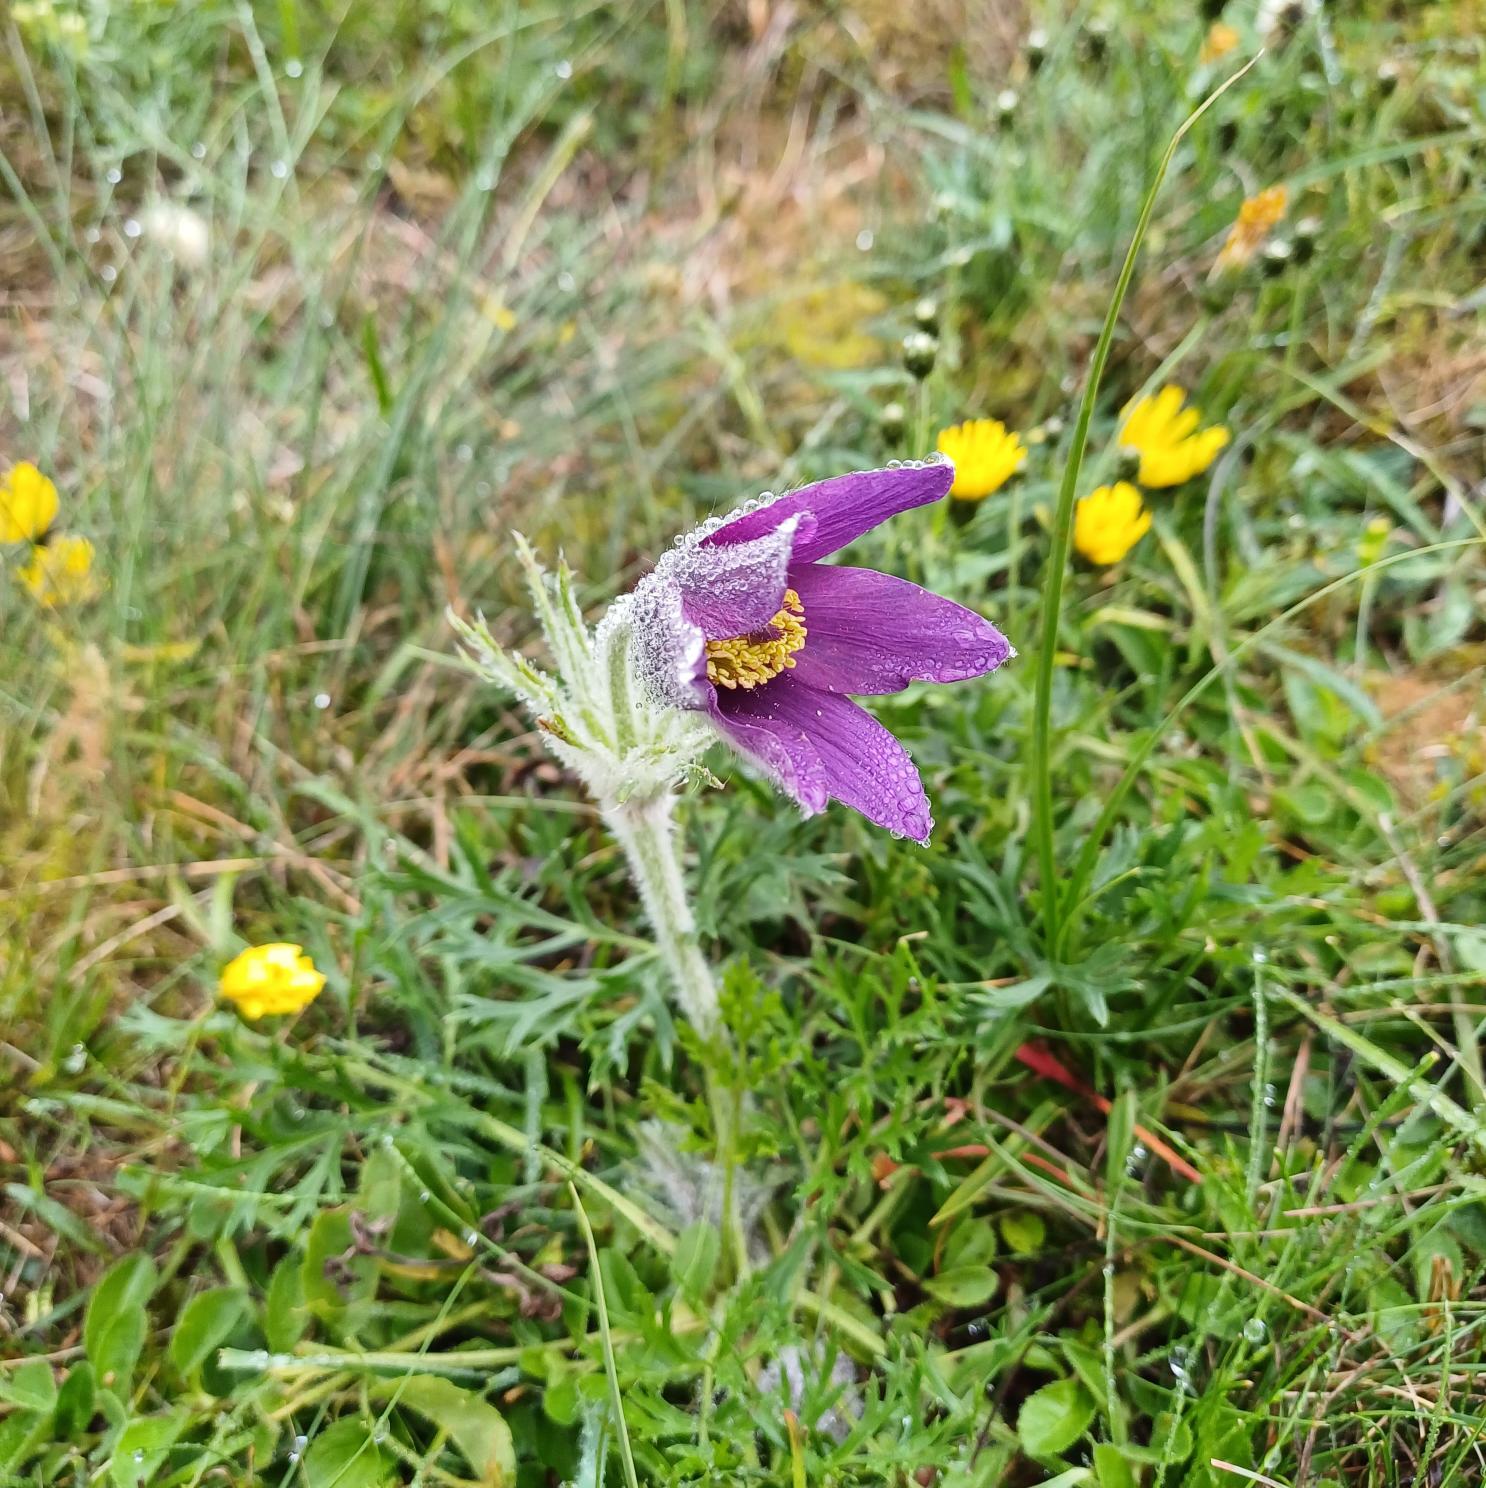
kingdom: Plantae
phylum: Tracheophyta
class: Magnoliopsida
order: Ranunculales
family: Ranunculaceae
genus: Pulsatilla
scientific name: Pulsatilla vulgaris
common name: Opret kobjælde
